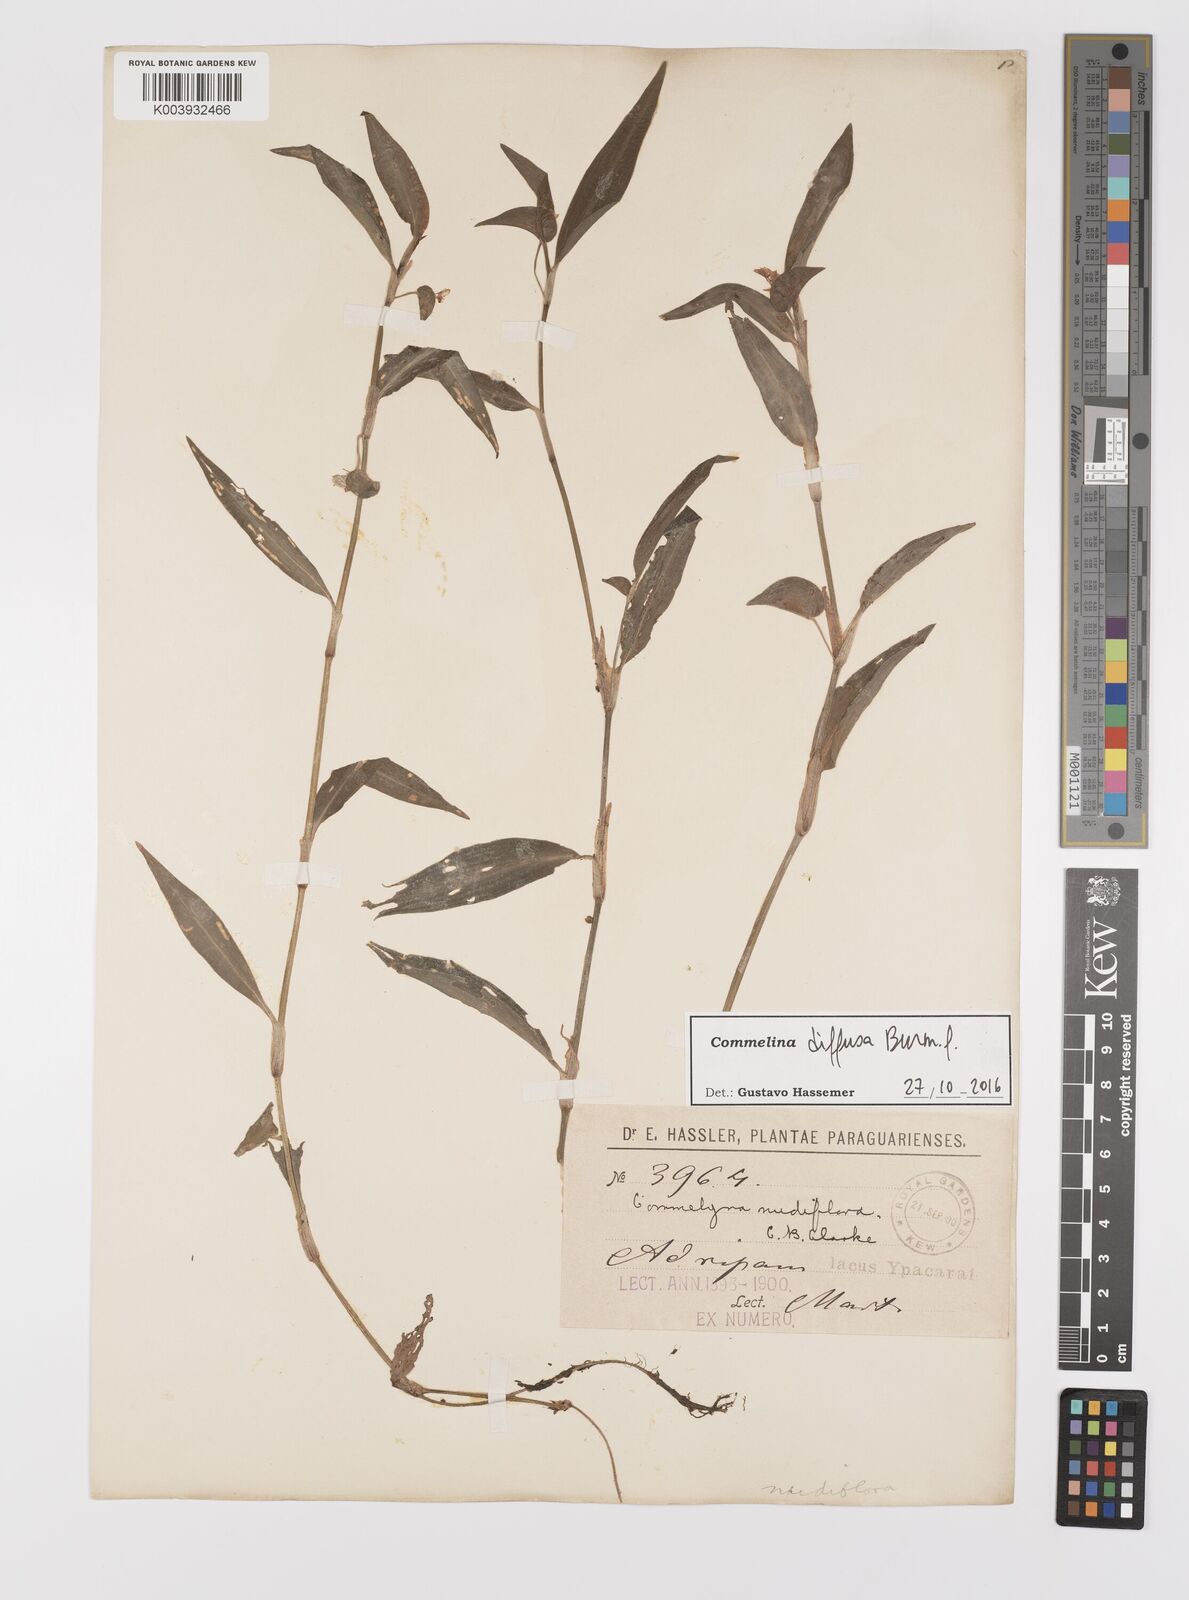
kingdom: Plantae
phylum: Tracheophyta
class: Liliopsida
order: Commelinales
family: Commelinaceae
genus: Commelina
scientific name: Commelina diffusa
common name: Climbing dayflower
